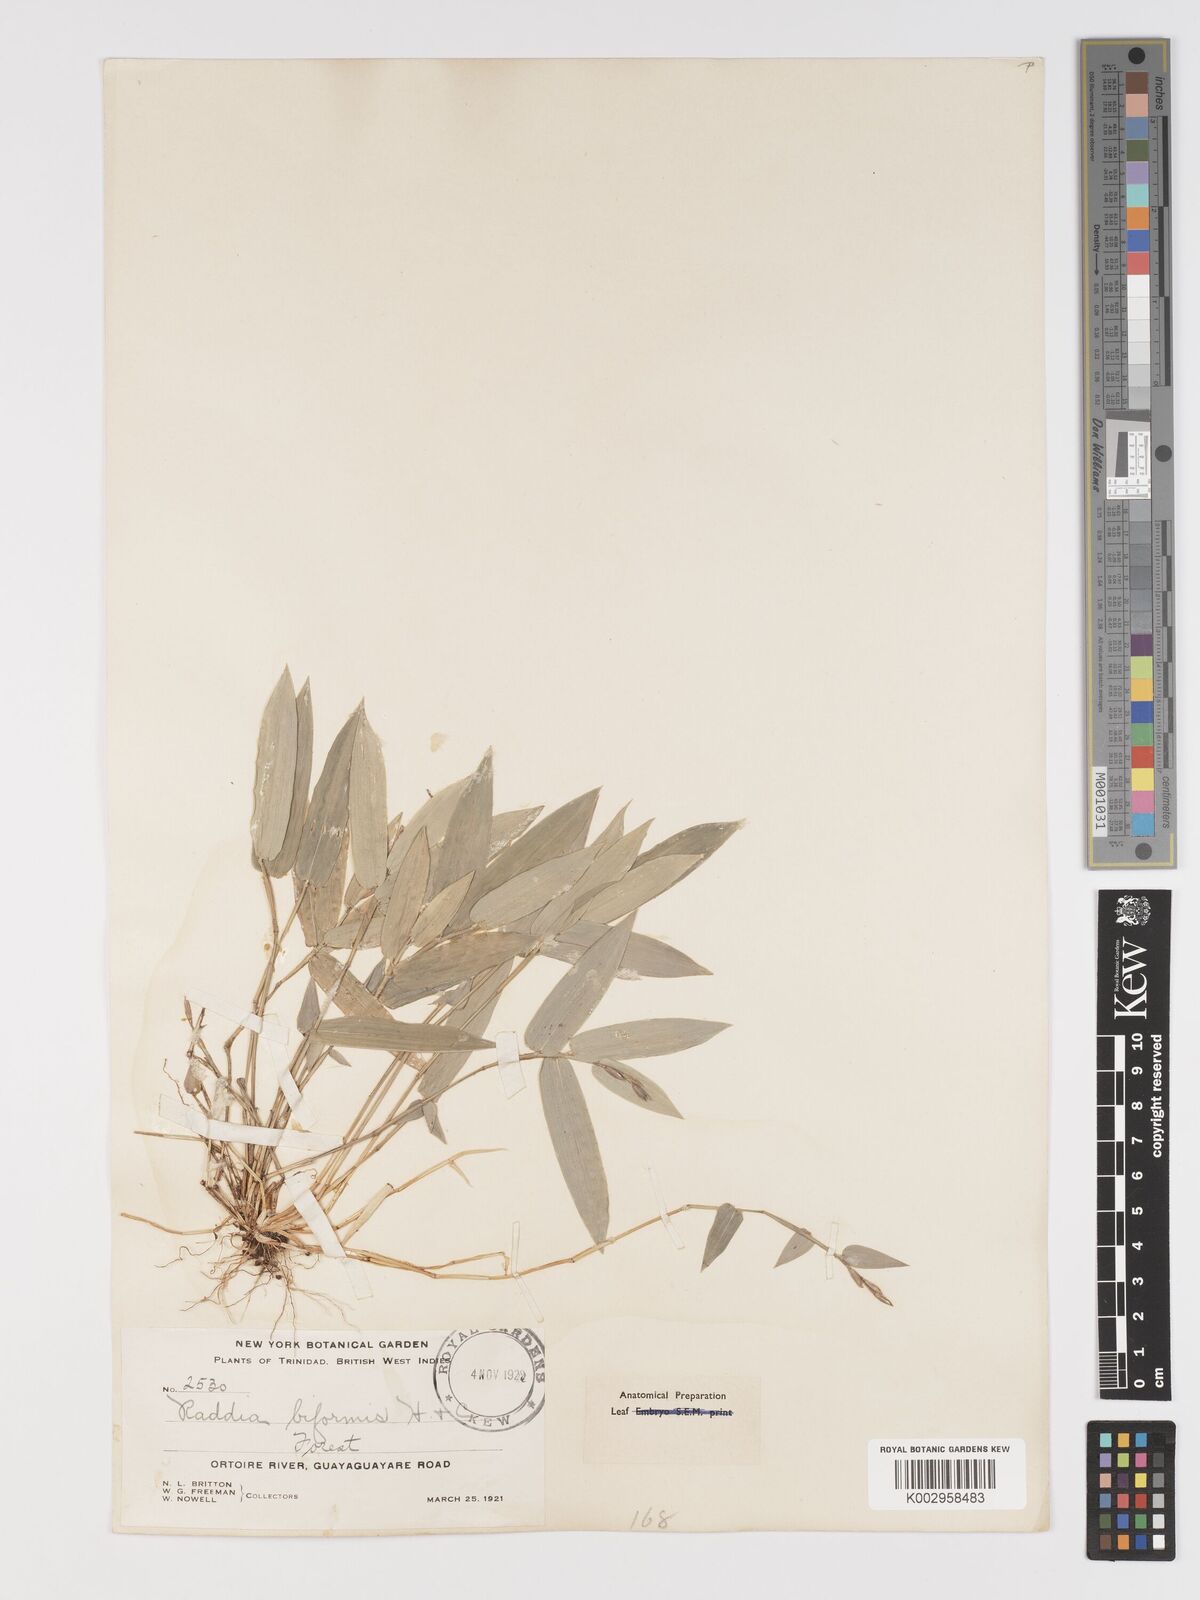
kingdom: Plantae
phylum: Tracheophyta
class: Liliopsida
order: Poales
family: Poaceae
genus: Piresia
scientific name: Piresia sympodica
